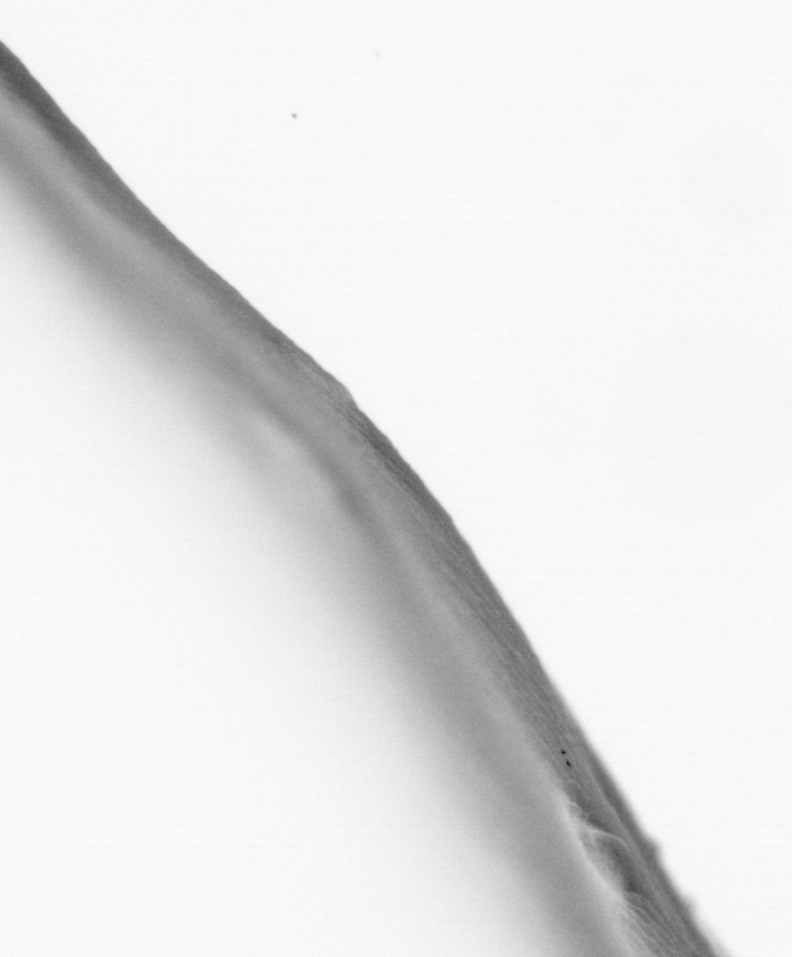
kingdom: Animalia
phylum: Chordata
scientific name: Chordata
